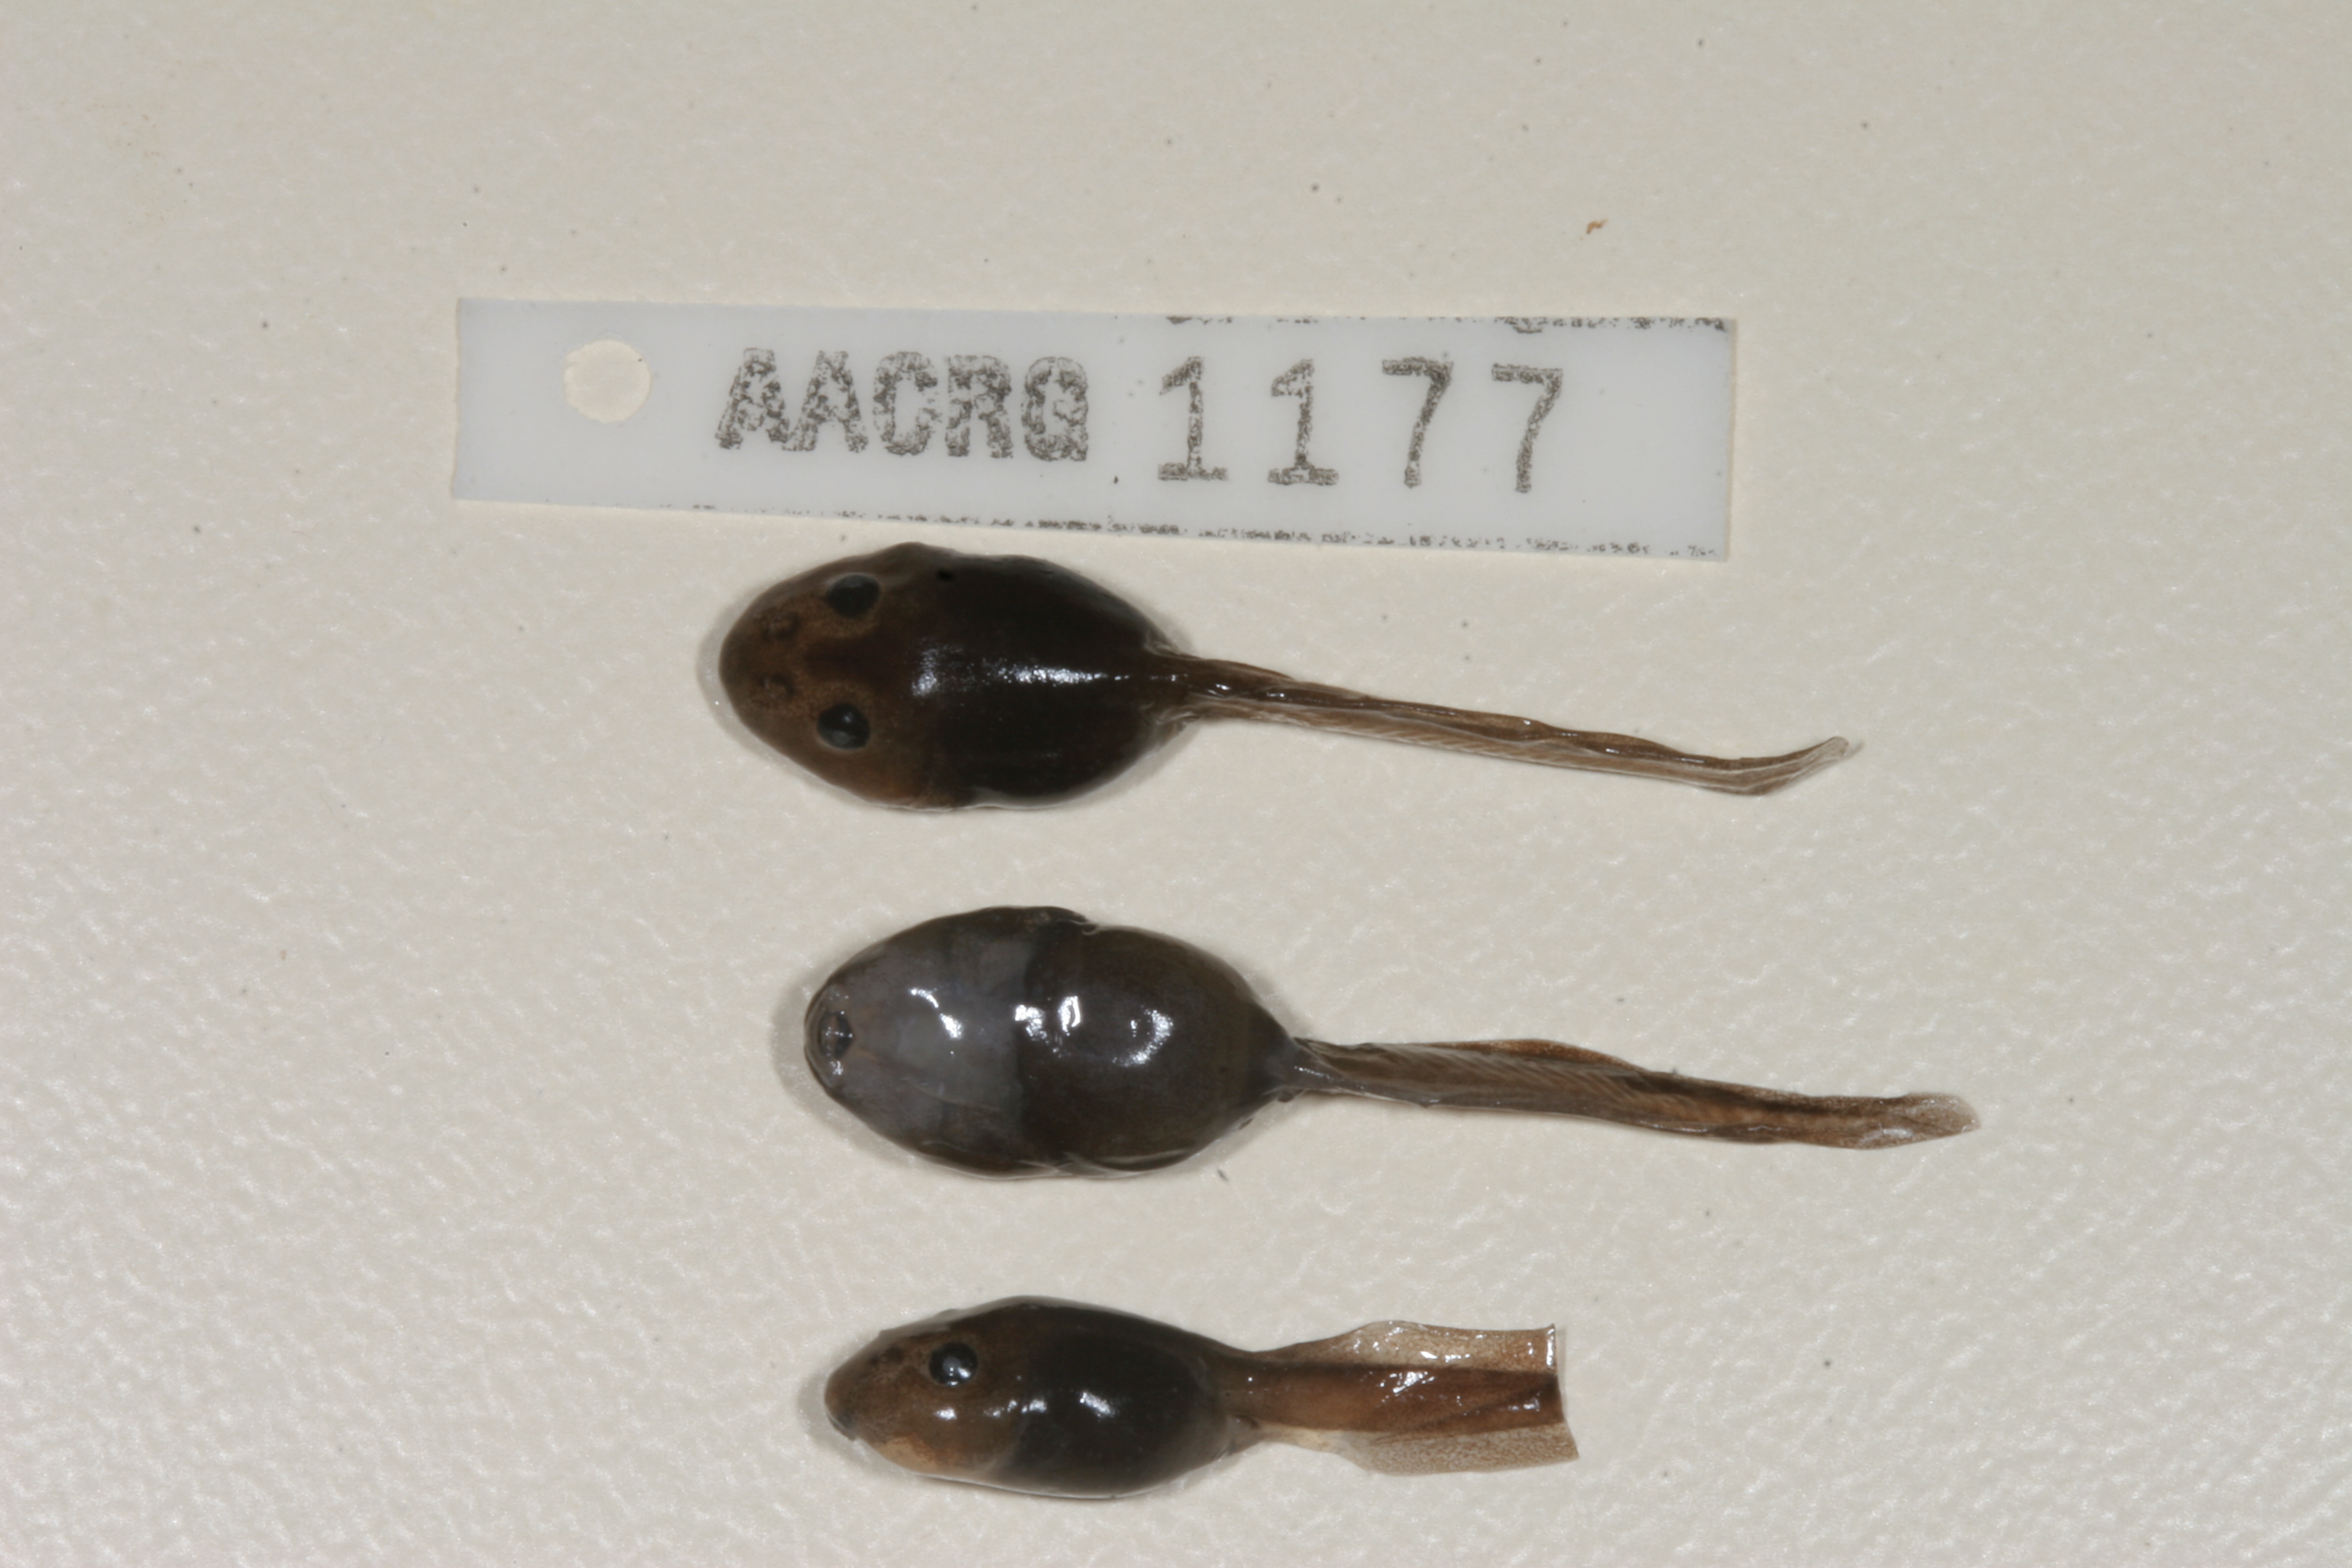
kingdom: Animalia
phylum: Chordata
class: Amphibia
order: Anura
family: Pyxicephalidae
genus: Strongylopus
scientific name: Strongylopus grayii
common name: Gray's stream frog
